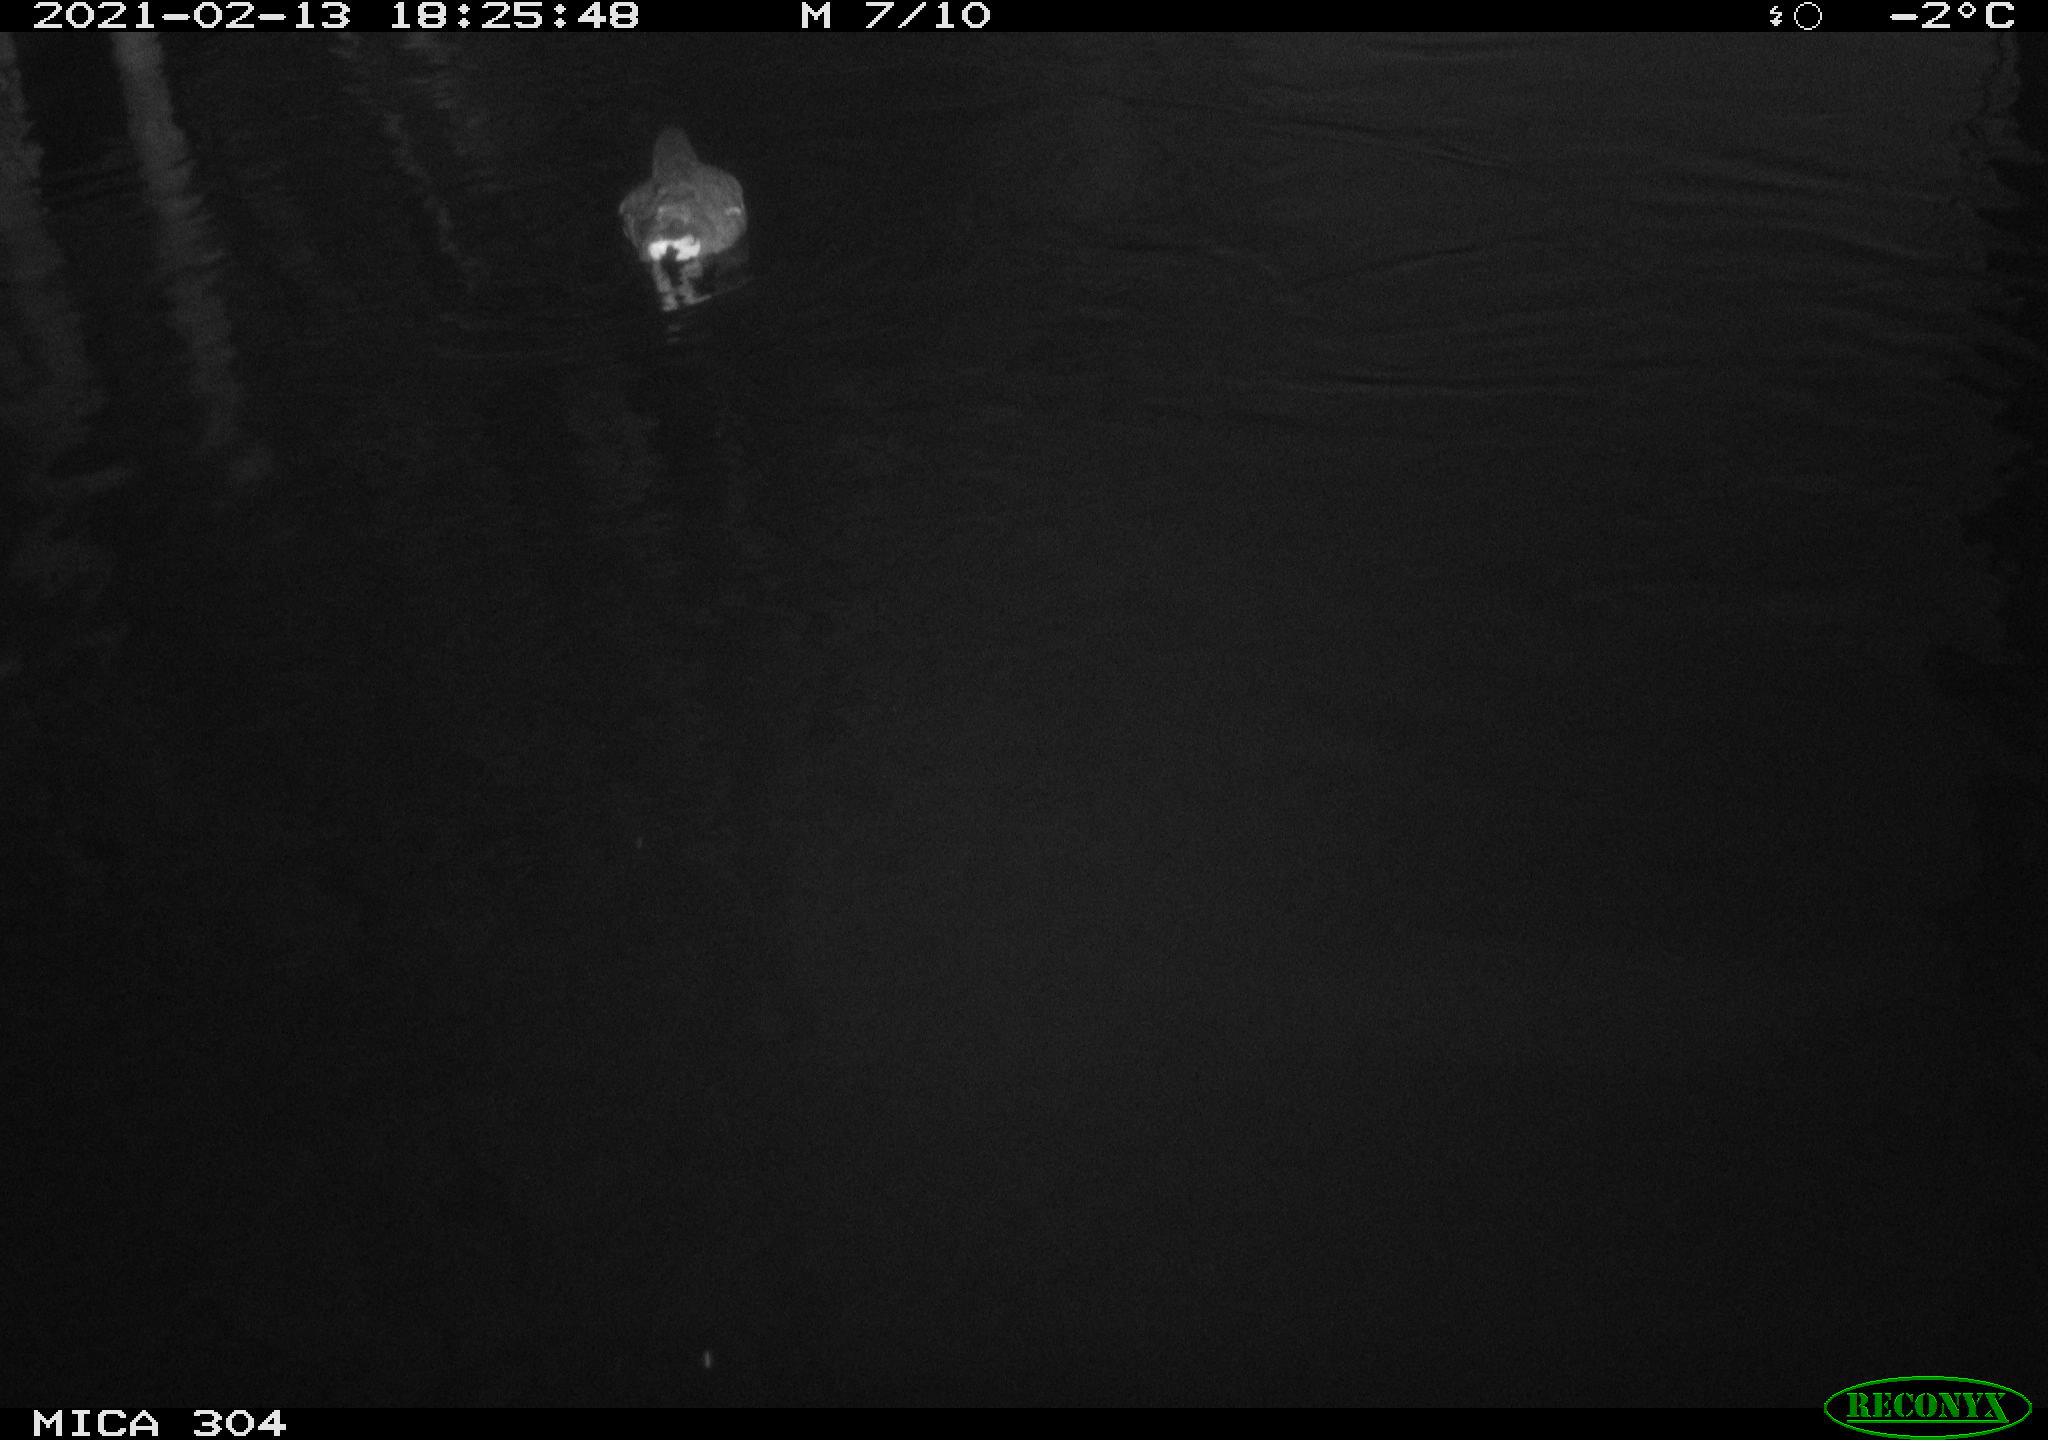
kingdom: Animalia
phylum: Chordata
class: Aves
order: Gruiformes
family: Rallidae
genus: Gallinula
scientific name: Gallinula chloropus
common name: Common moorhen
